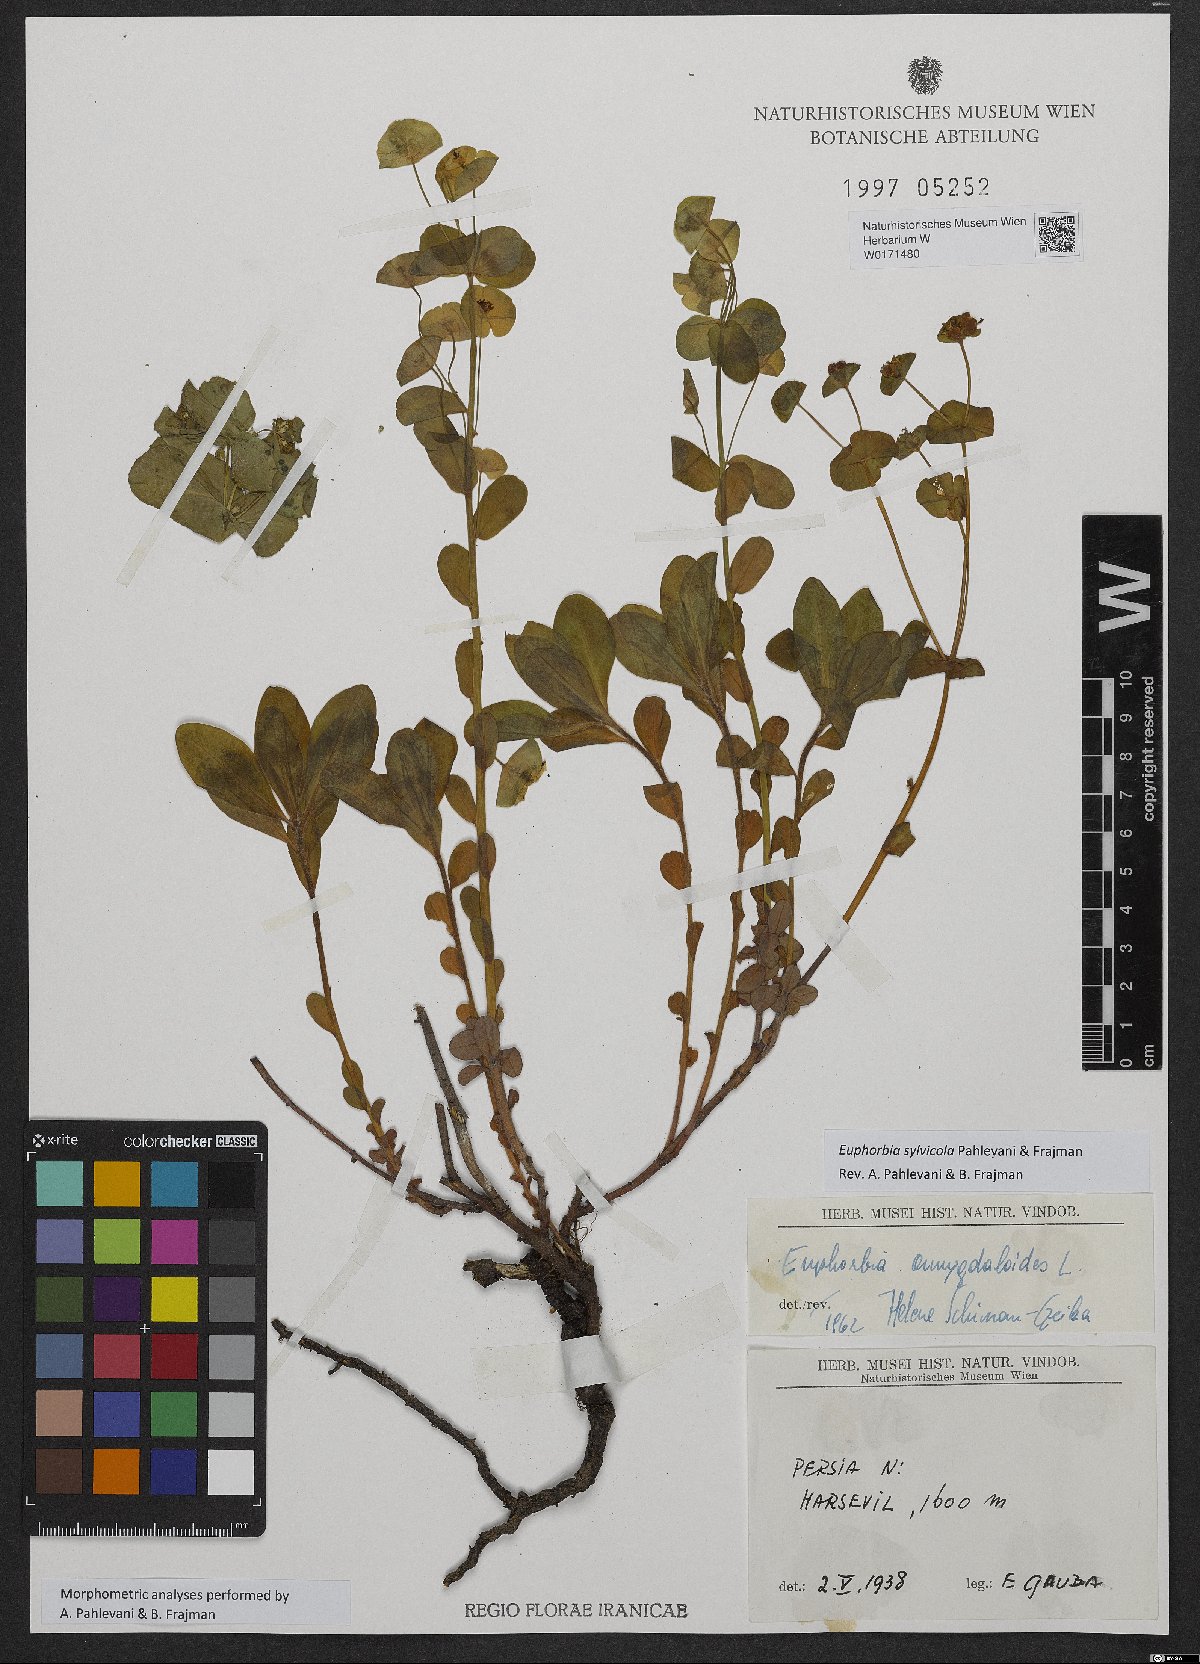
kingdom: Plantae
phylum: Tracheophyta
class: Magnoliopsida
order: Malpighiales
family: Euphorbiaceae
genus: Euphorbia
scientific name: Euphorbia juttae
